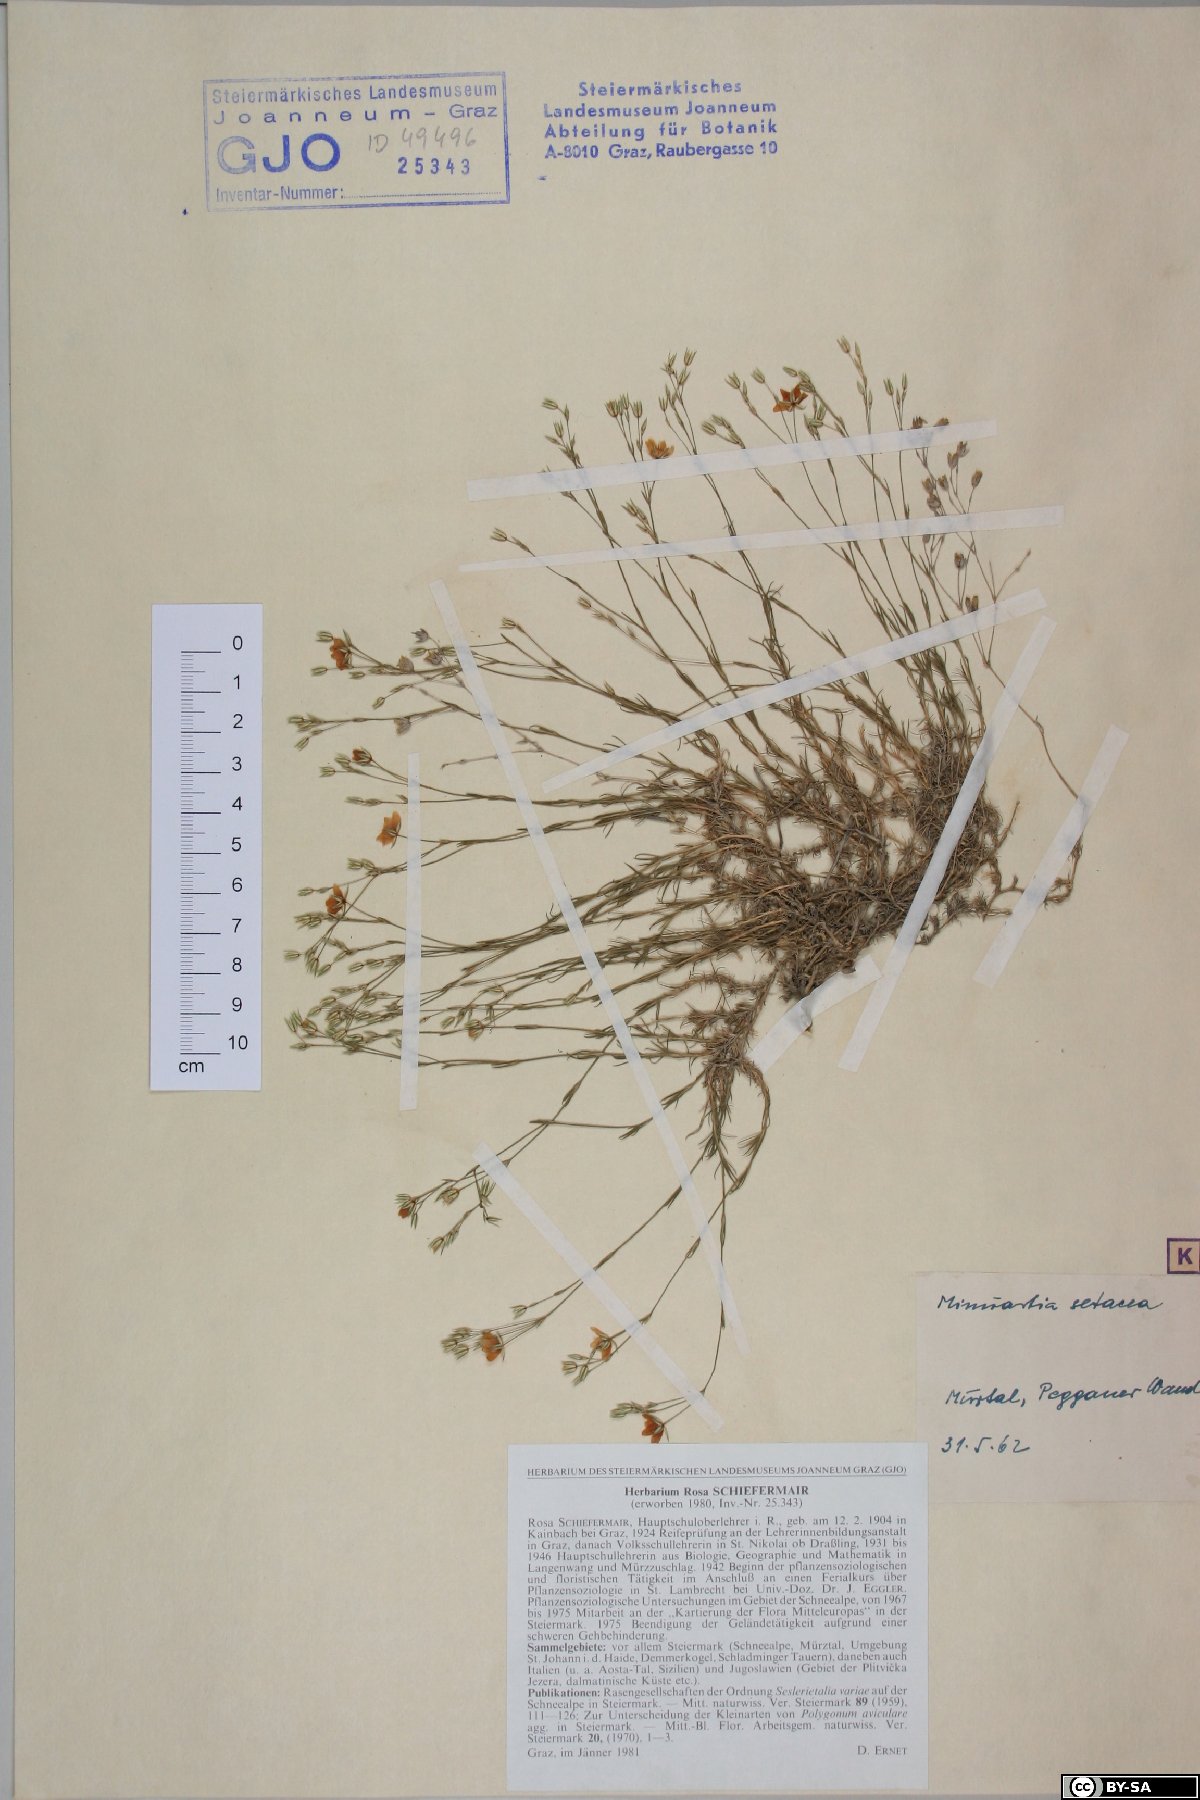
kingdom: Plantae
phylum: Tracheophyta
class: Magnoliopsida
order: Caryophyllales
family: Caryophyllaceae
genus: Minuartia
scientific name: Minuartia setacea
